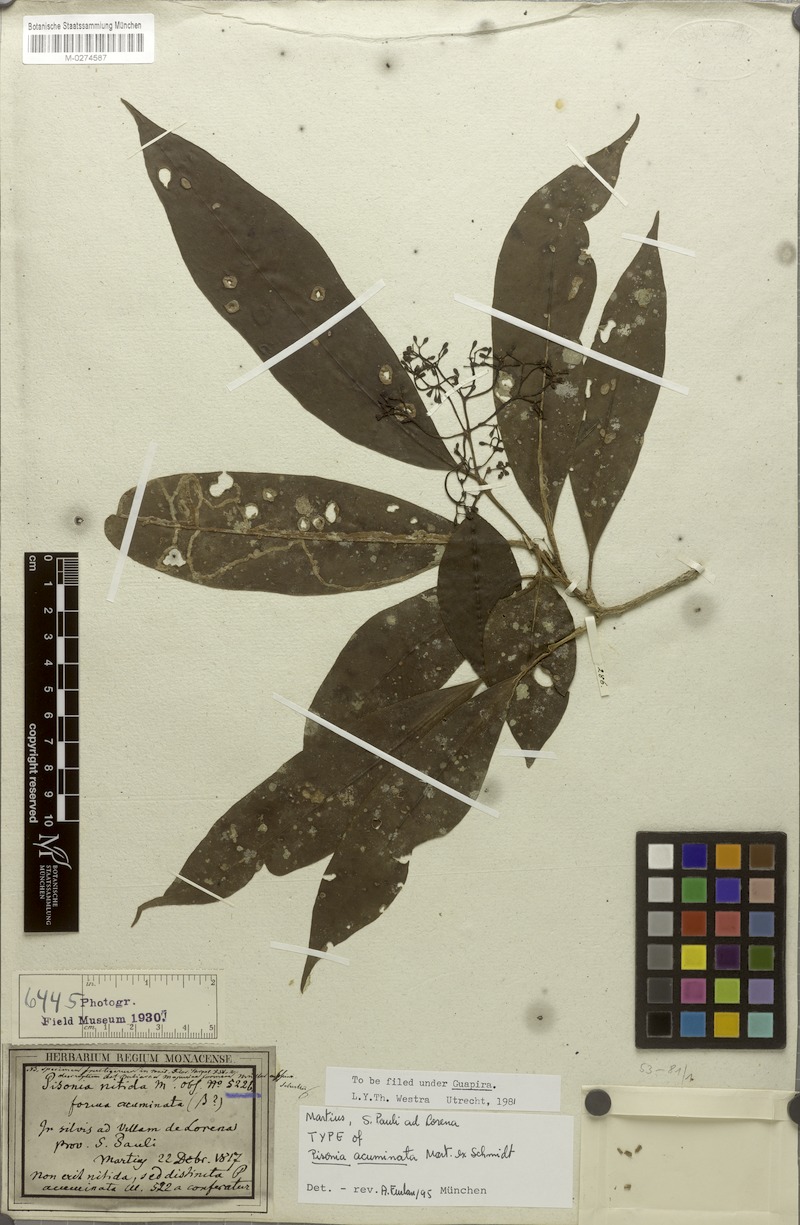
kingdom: Plantae
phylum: Tracheophyta
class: Magnoliopsida
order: Caryophyllales
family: Nyctaginaceae
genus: Guapira
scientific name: Guapira acuminata
